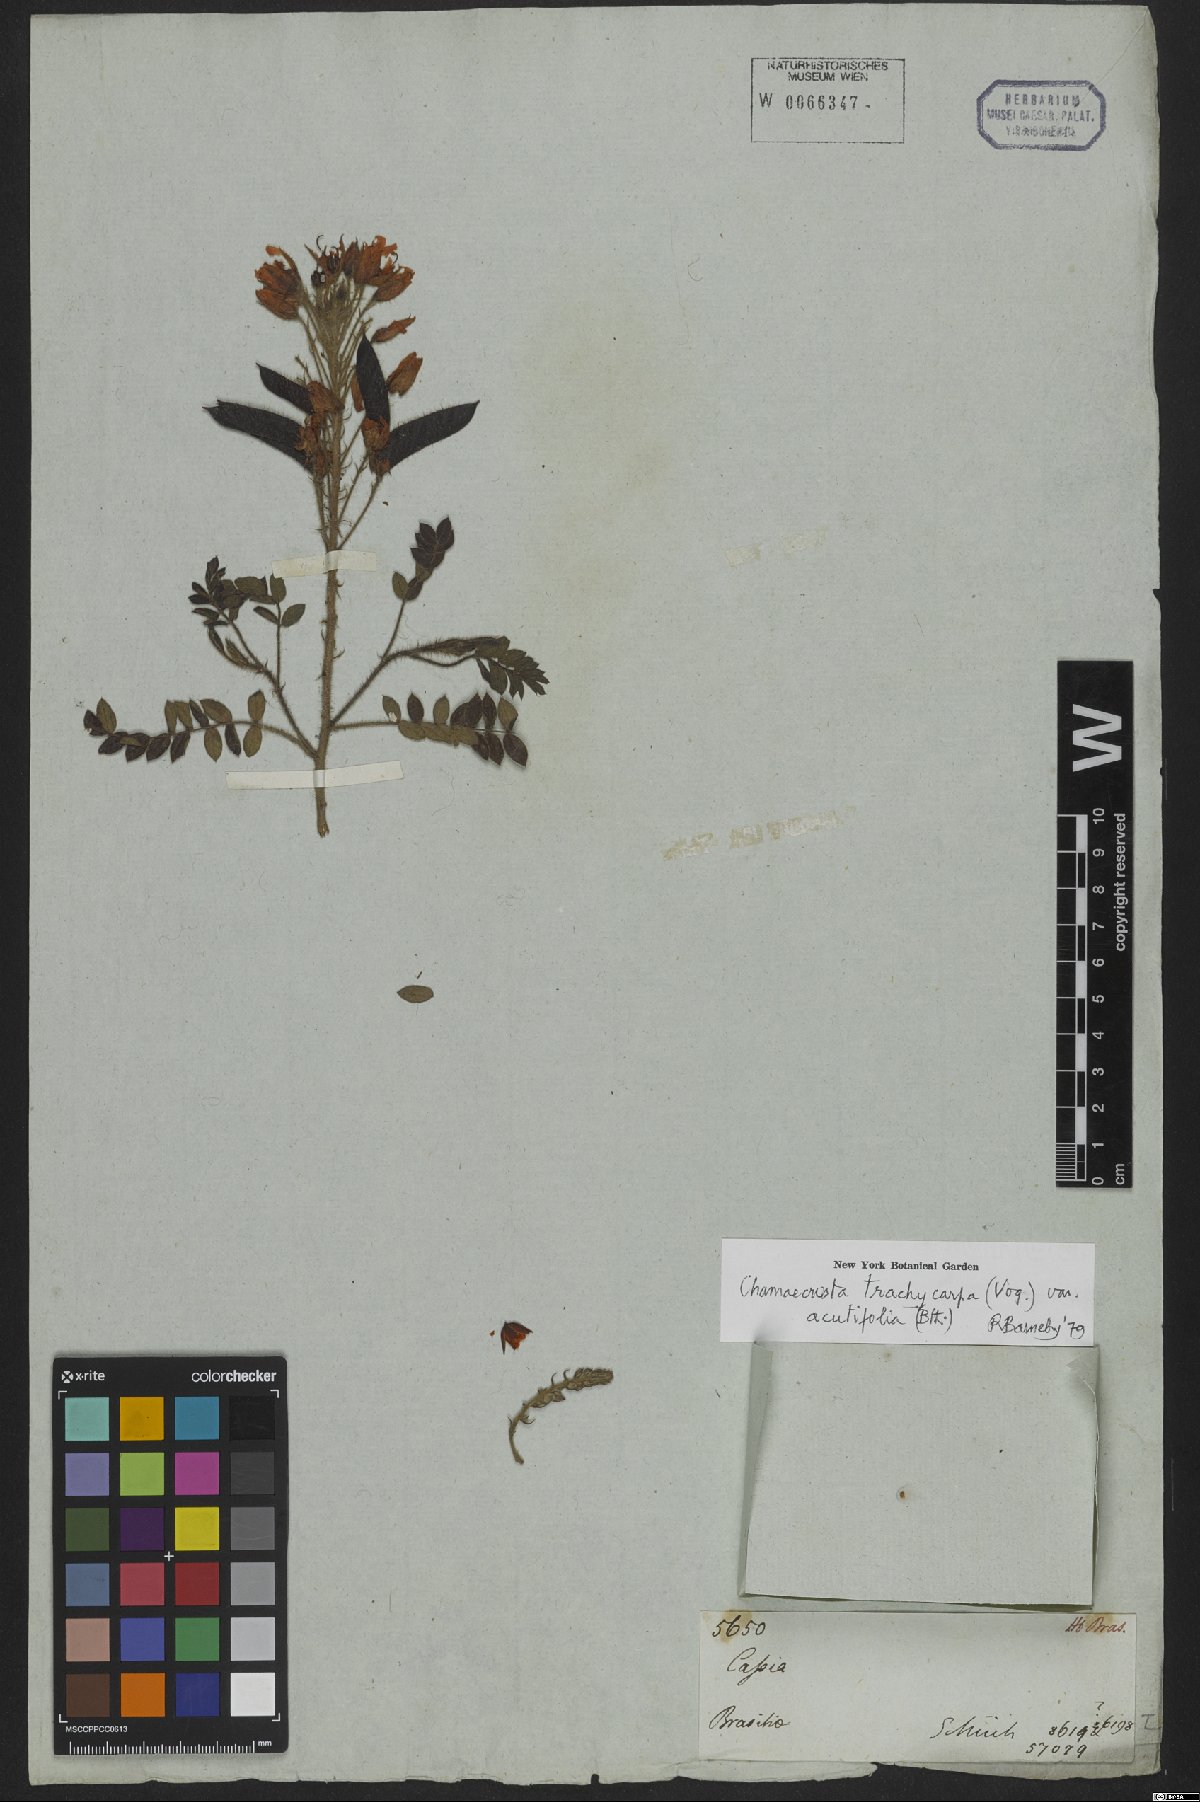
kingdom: Plantae
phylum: Tracheophyta
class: Magnoliopsida
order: Fabales
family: Fabaceae
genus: Chamaecrista
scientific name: Chamaecrista trachycarpa
